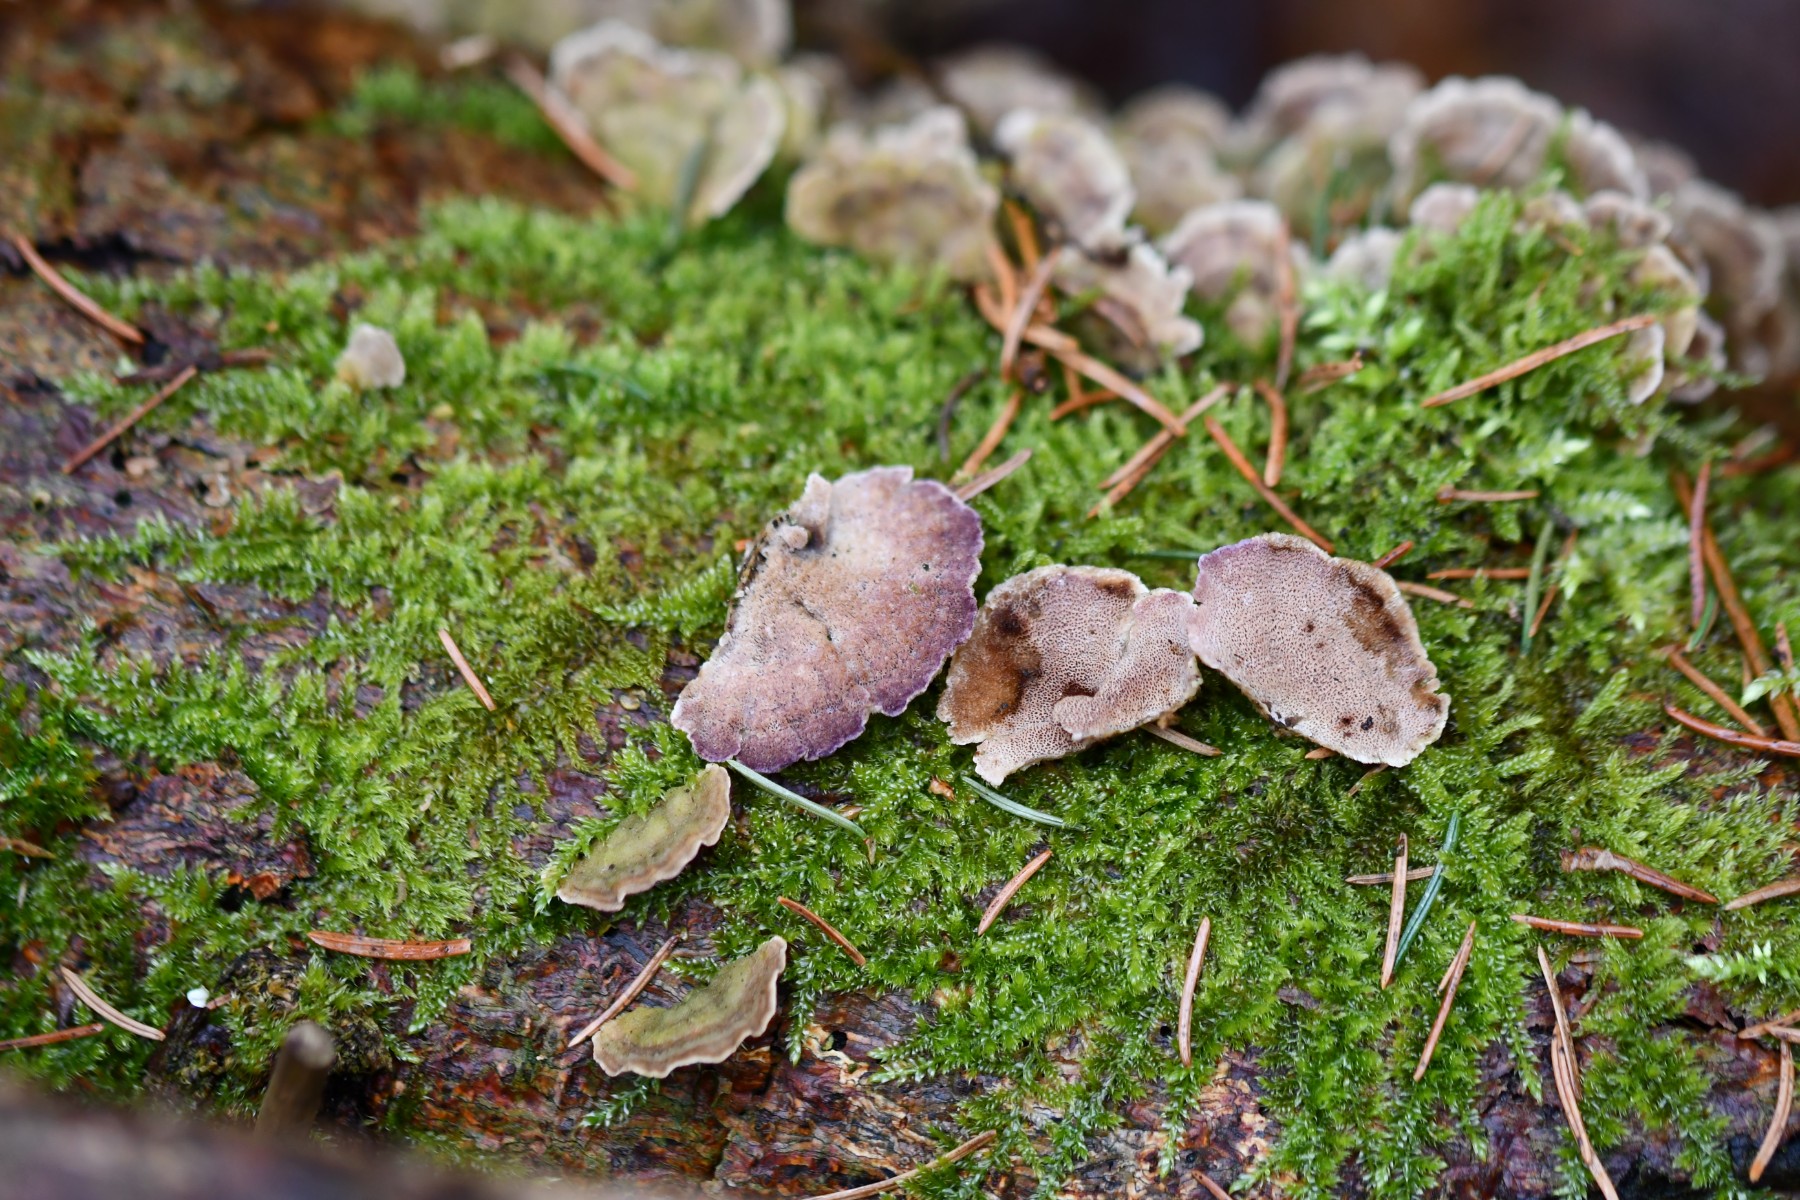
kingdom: Fungi
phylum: Basidiomycota
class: Agaricomycetes
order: Hymenochaetales
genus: Trichaptum
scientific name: Trichaptum abietinum
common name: almindelig violporesvamp
